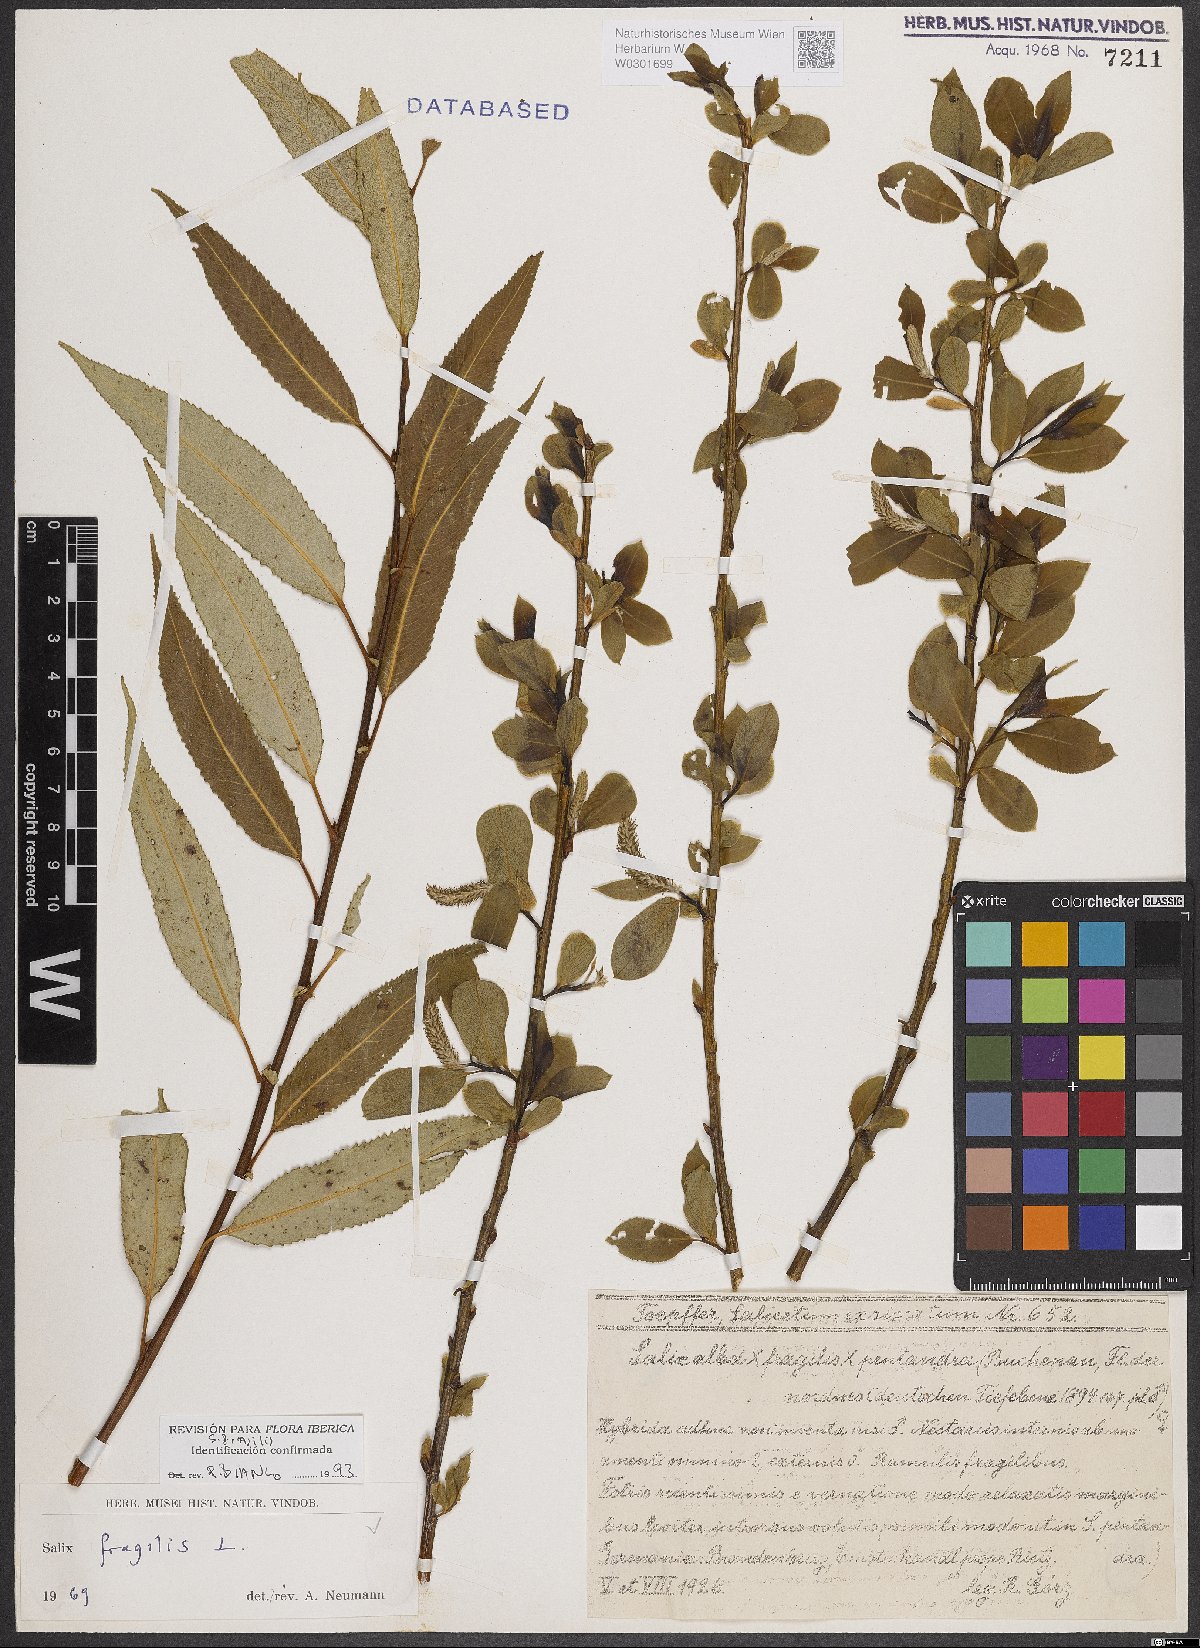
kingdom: Plantae
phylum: Tracheophyta
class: Magnoliopsida
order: Malpighiales
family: Salicaceae
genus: Salix
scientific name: Salix fragilis
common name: Crack willow
